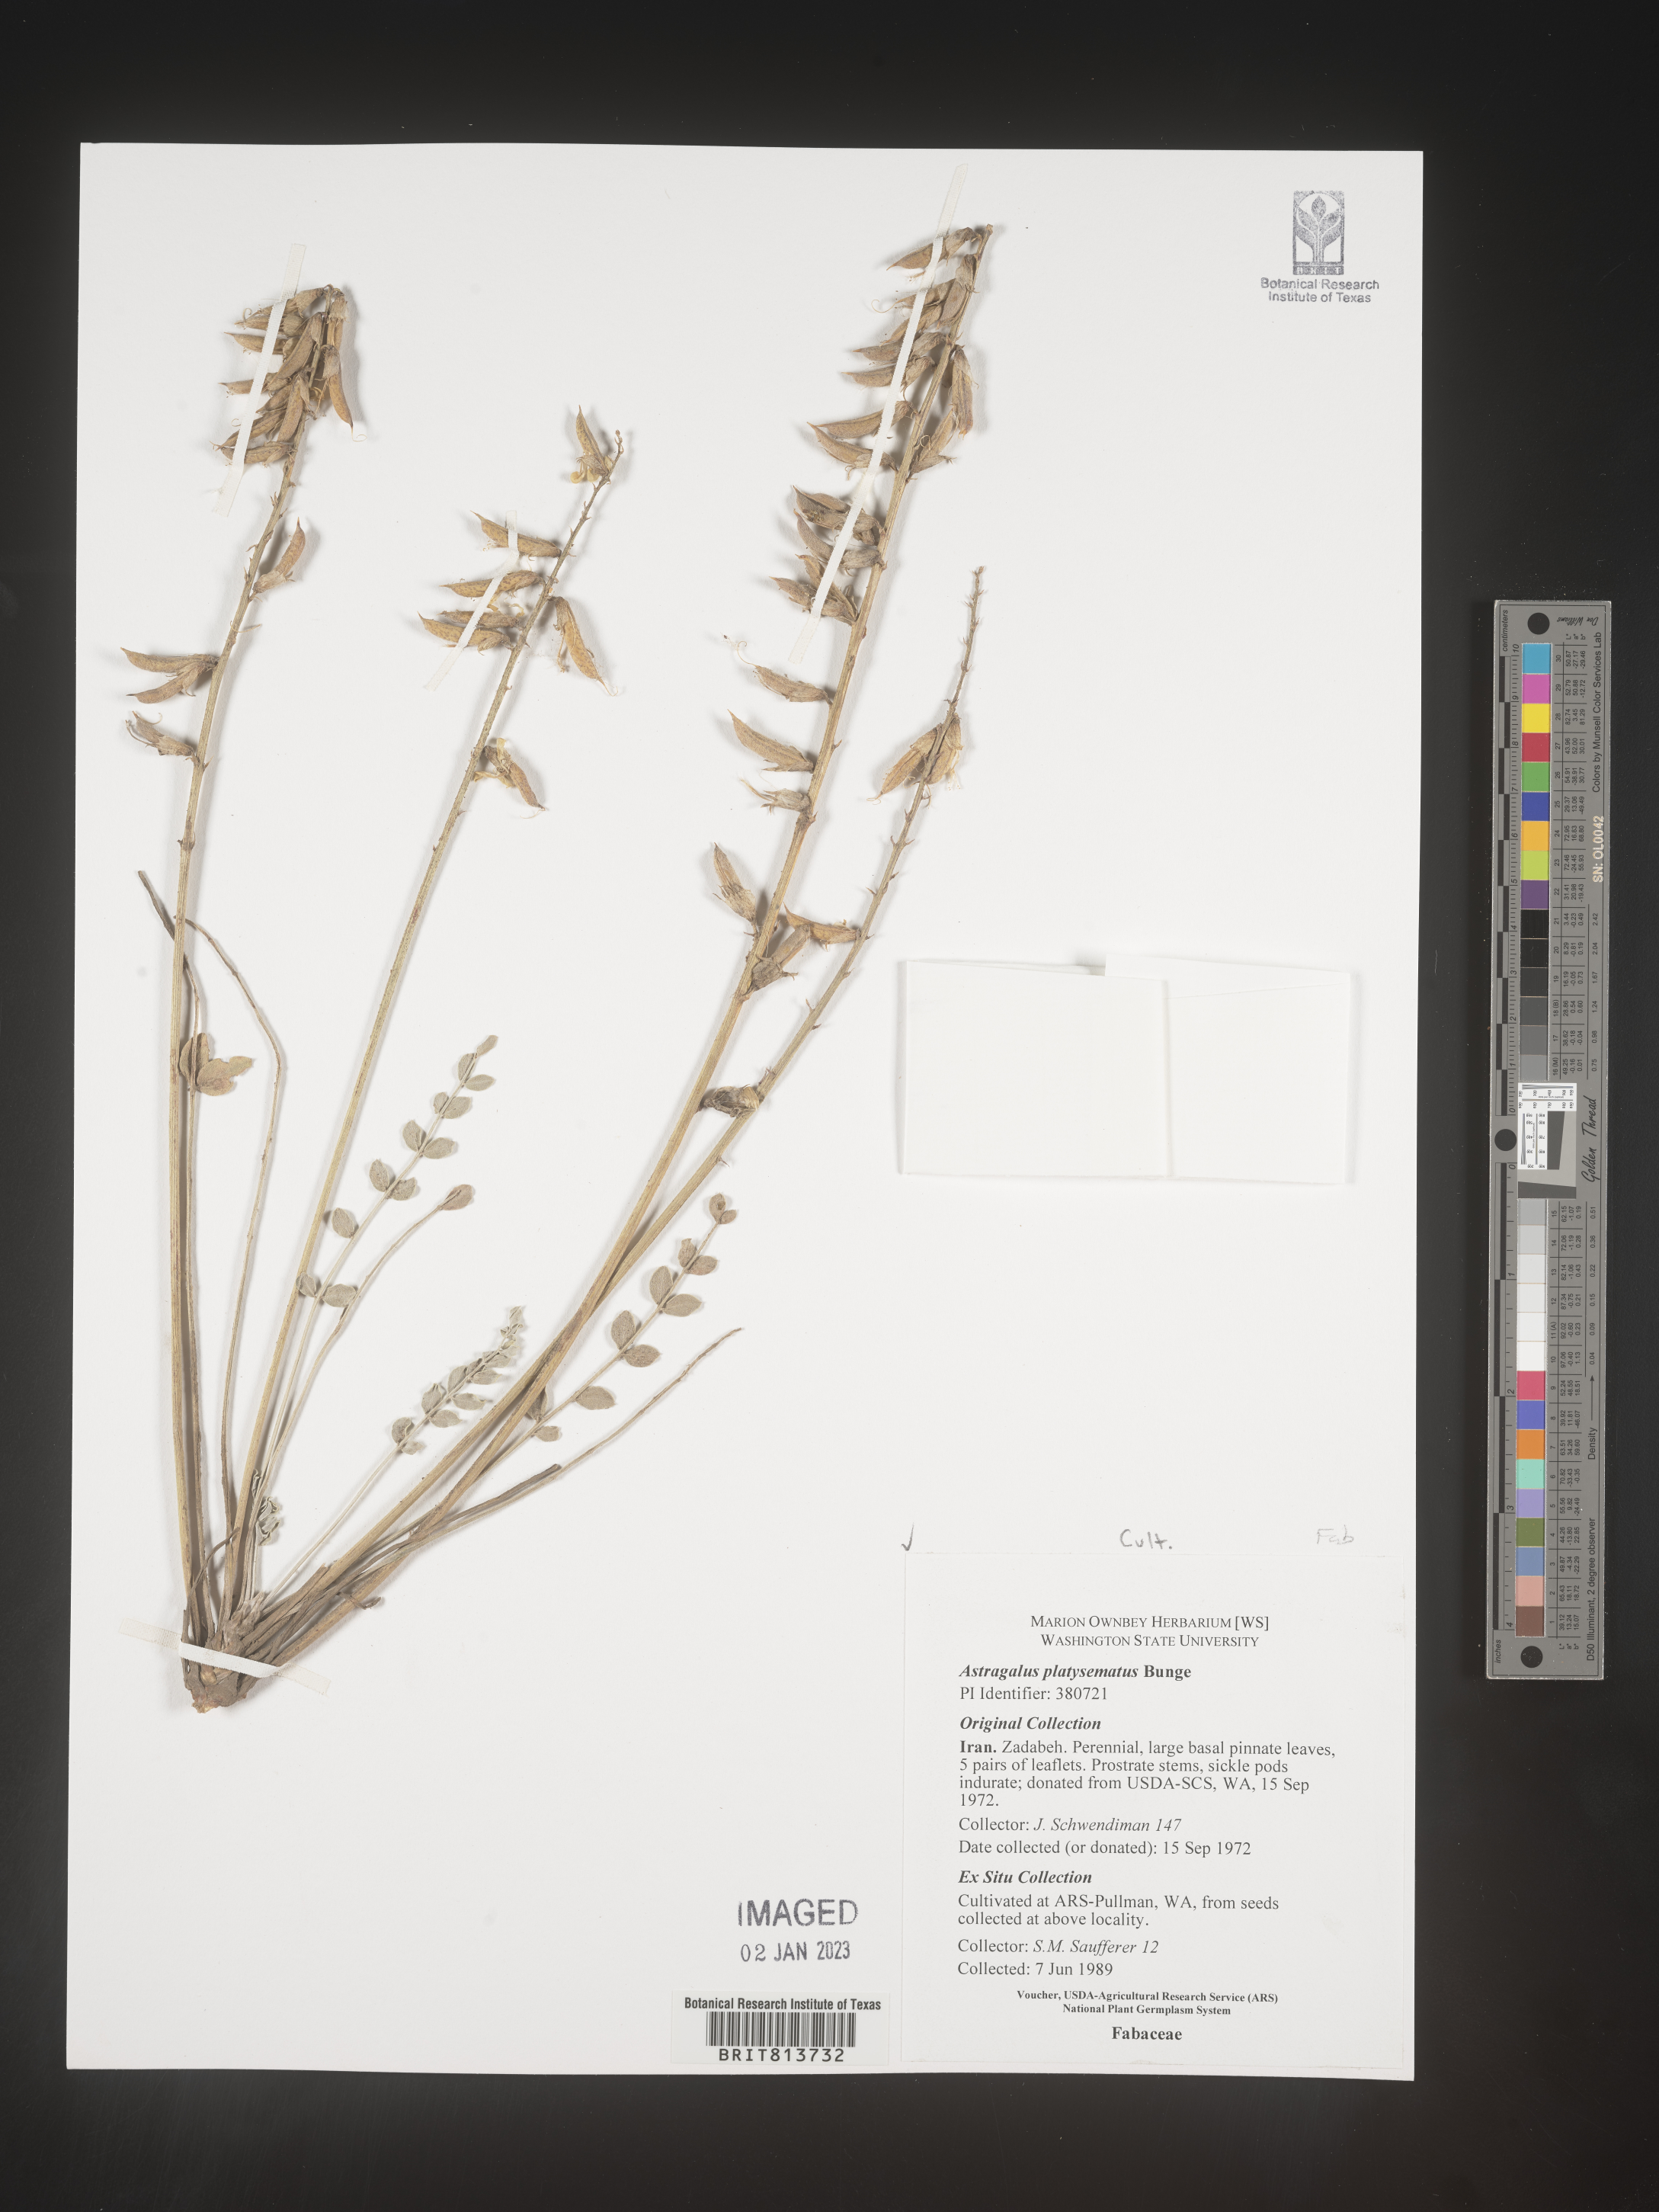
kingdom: Plantae
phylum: Tracheophyta
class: Magnoliopsida
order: Fabales
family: Fabaceae
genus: Astragalus
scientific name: Astragalus
